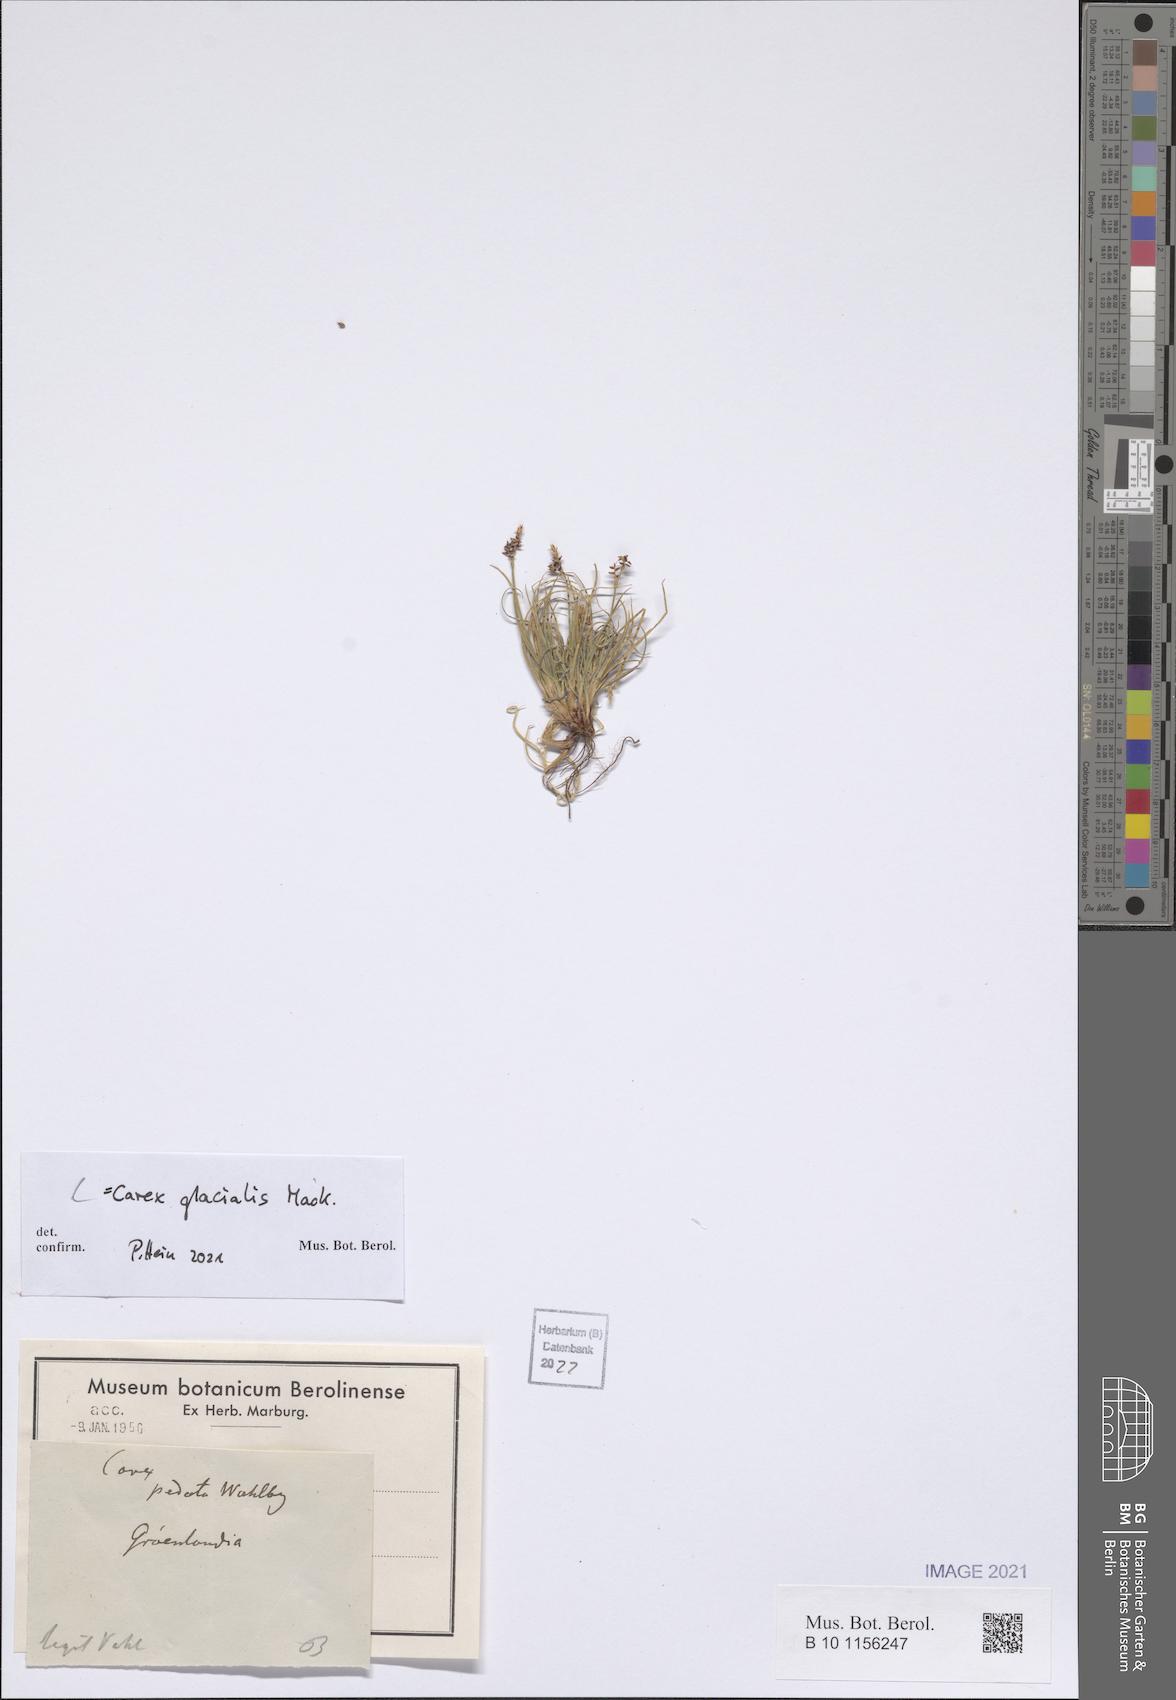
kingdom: Plantae
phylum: Tracheophyta
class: Liliopsida
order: Poales
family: Cyperaceae
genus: Carex
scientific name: Carex glacialis
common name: Newfoundland sedge
